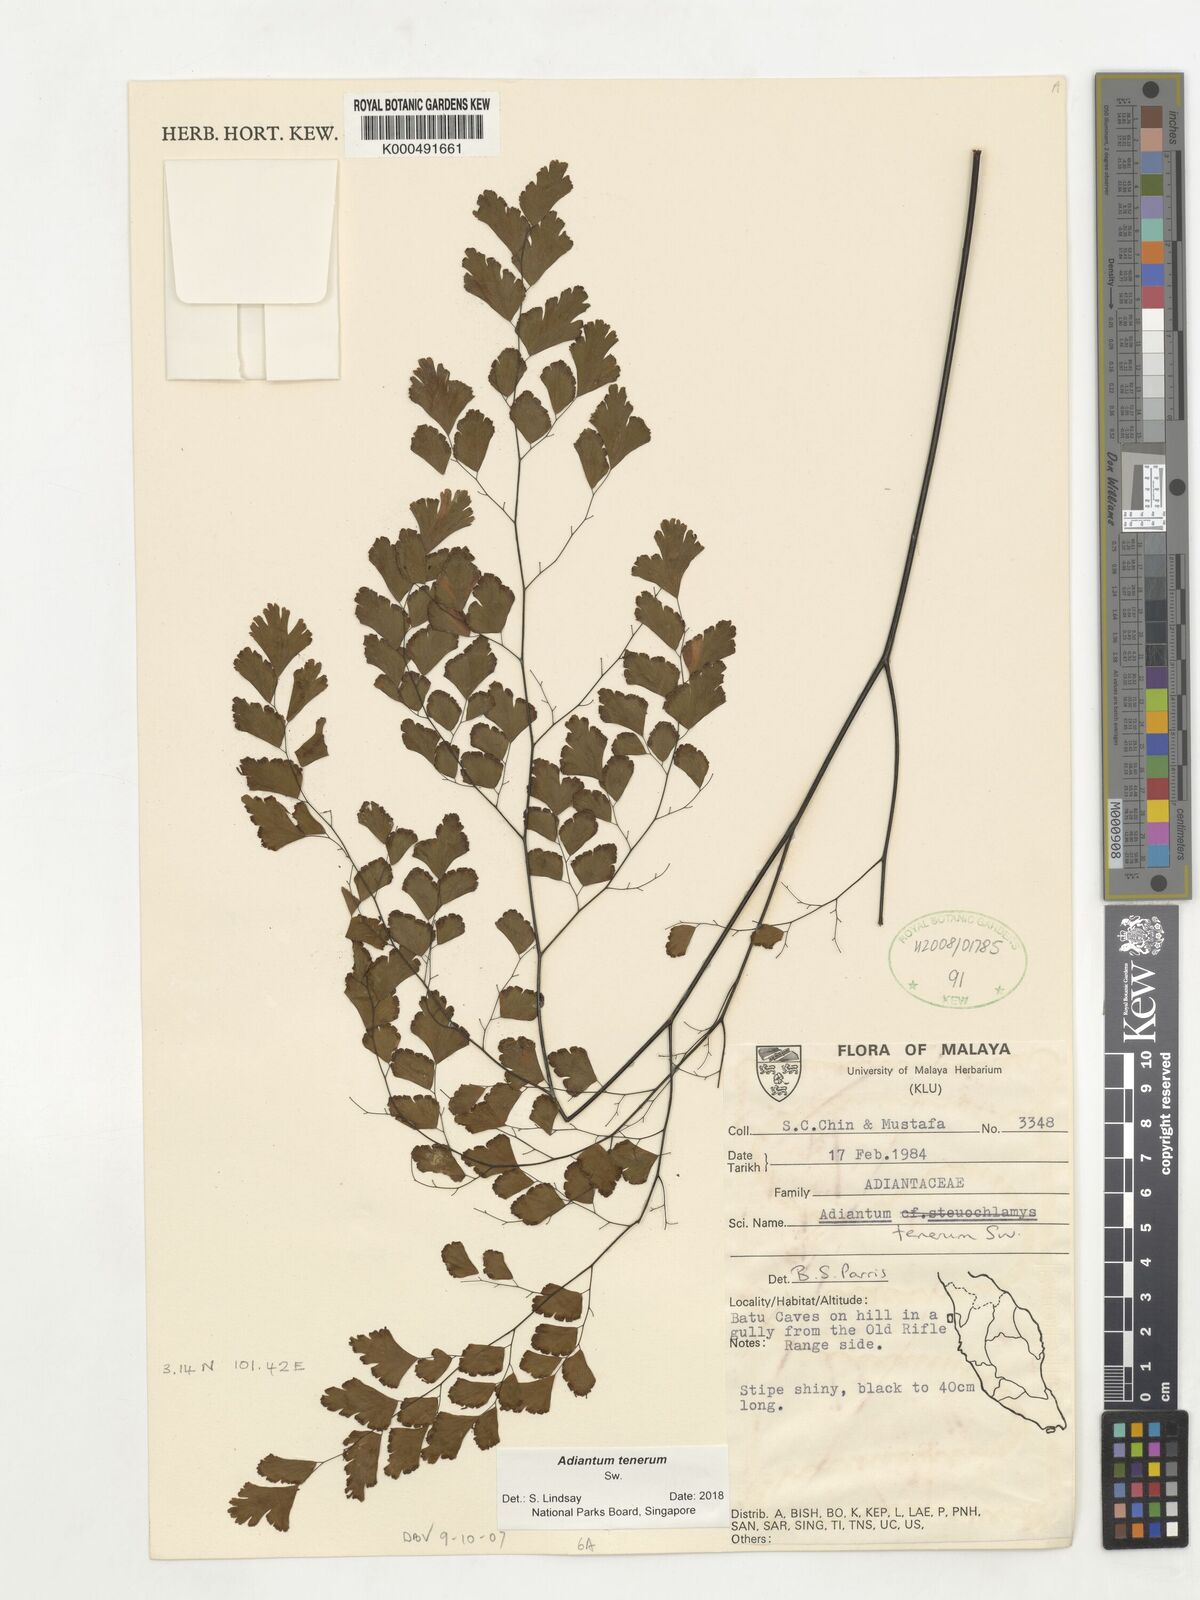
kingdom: Plantae
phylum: Tracheophyta
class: Polypodiopsida
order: Polypodiales
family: Pteridaceae
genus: Adiantum
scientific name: Adiantum tenerum
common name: Fan maidenhair
